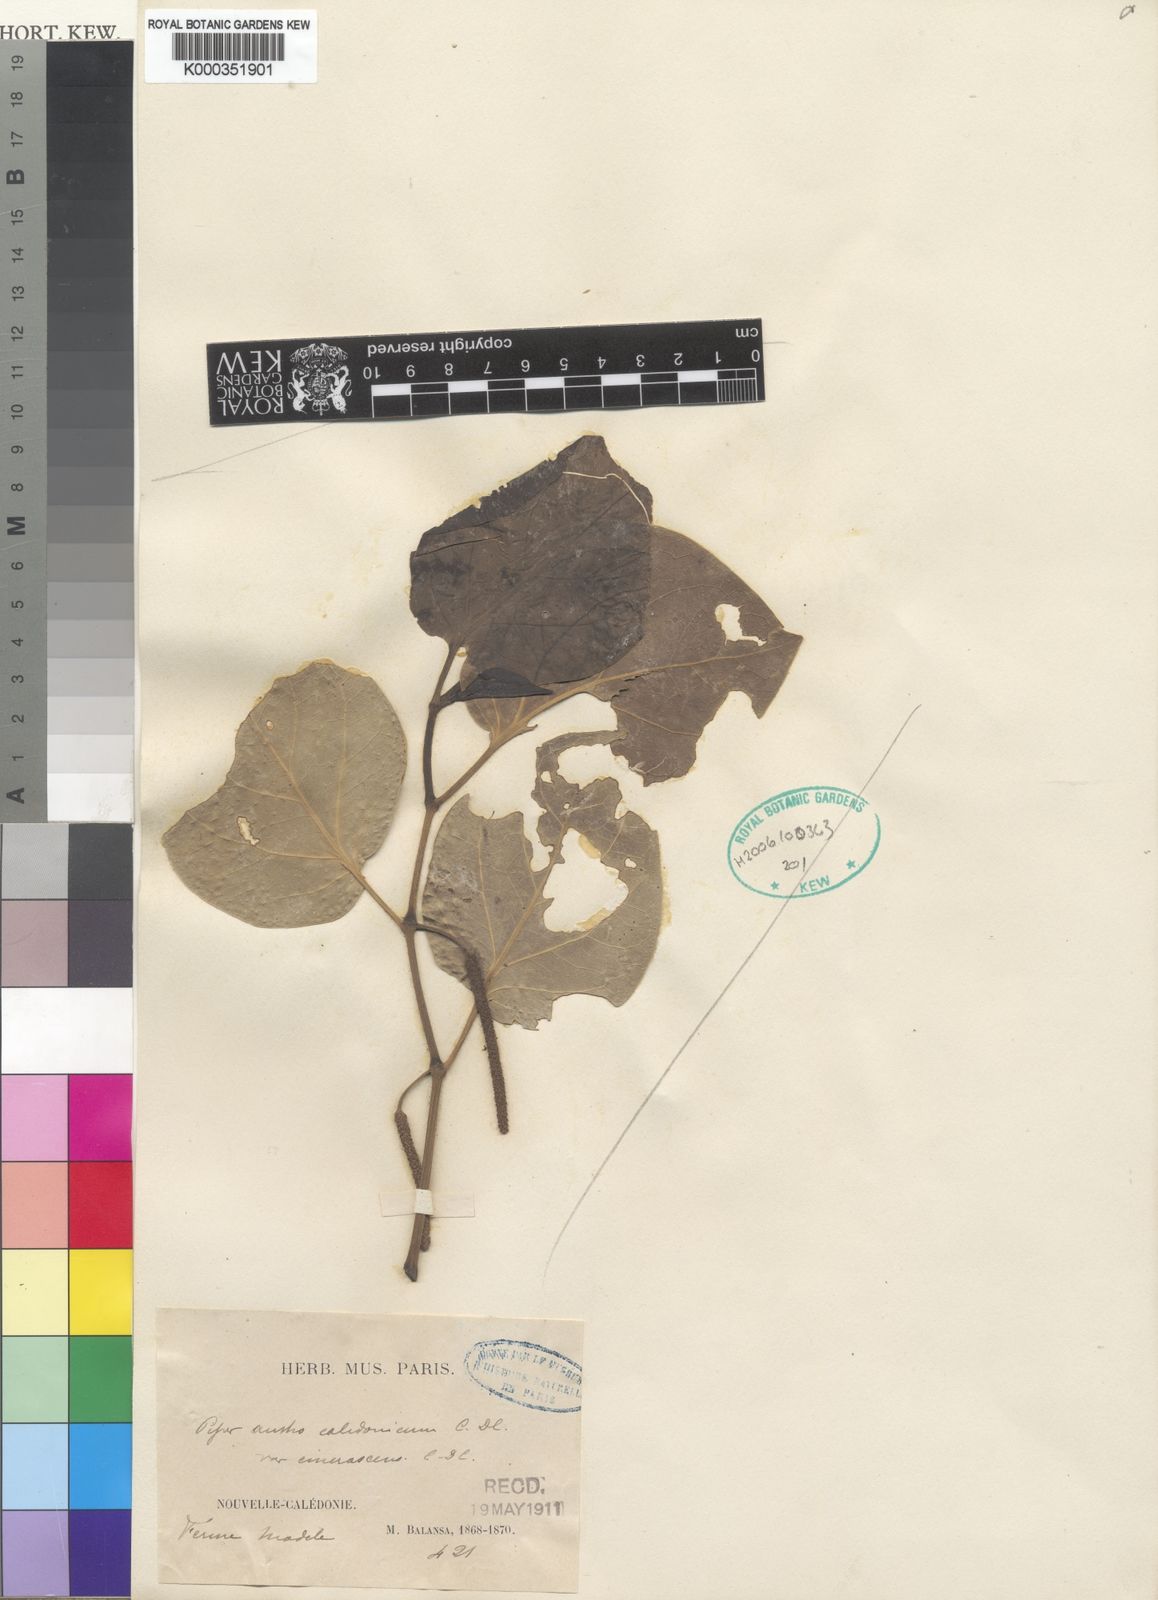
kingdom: Plantae
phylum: Tracheophyta
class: Magnoliopsida
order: Piperales
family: Piperaceae
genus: Piper
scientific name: Piper insectifugum
